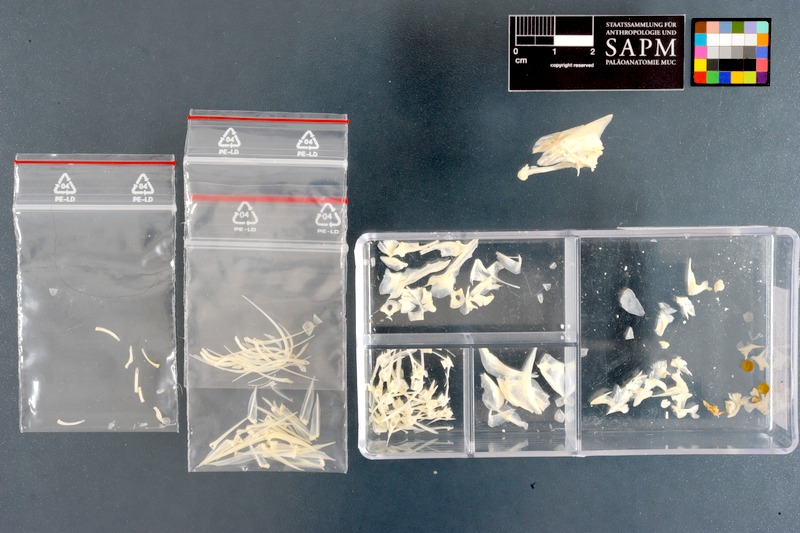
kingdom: Animalia
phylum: Chordata
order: Perciformes
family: Sparidae
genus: Diplodus
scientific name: Diplodus cervinus
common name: Oman porgy
